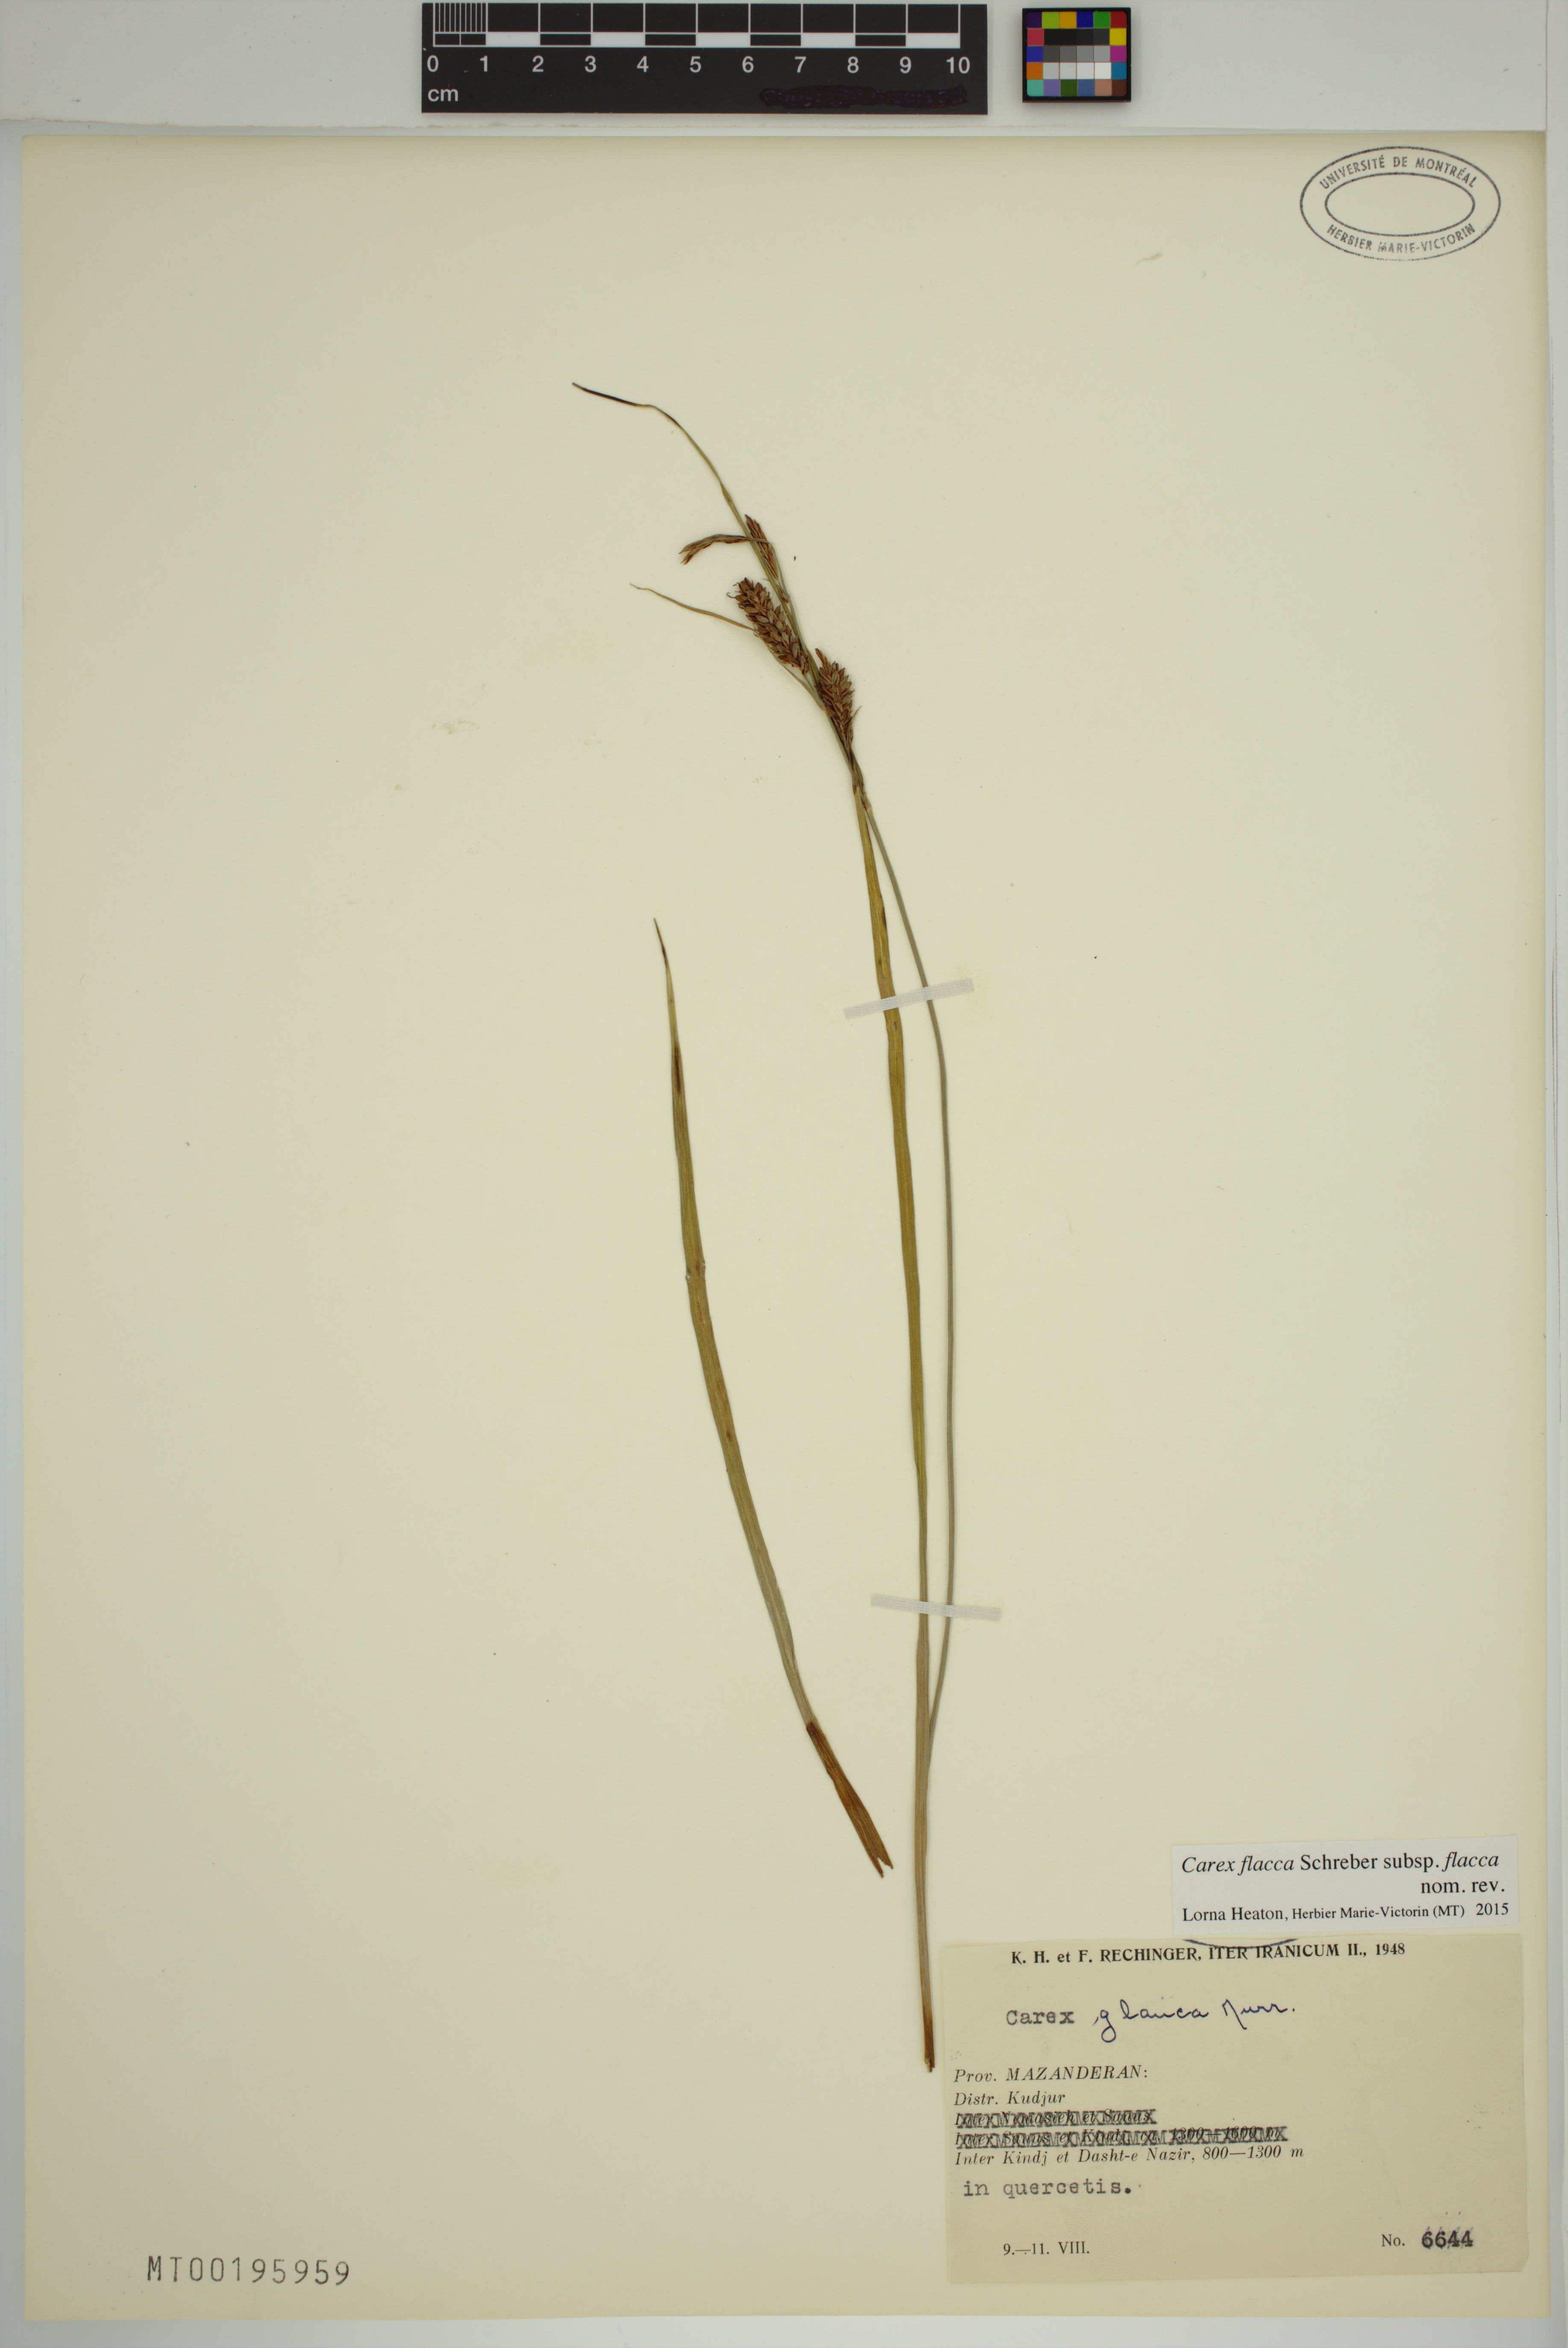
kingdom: Plantae
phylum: Tracheophyta
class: Liliopsida
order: Poales
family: Cyperaceae
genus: Carex
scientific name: Carex flacca
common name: Glaucous sedge
